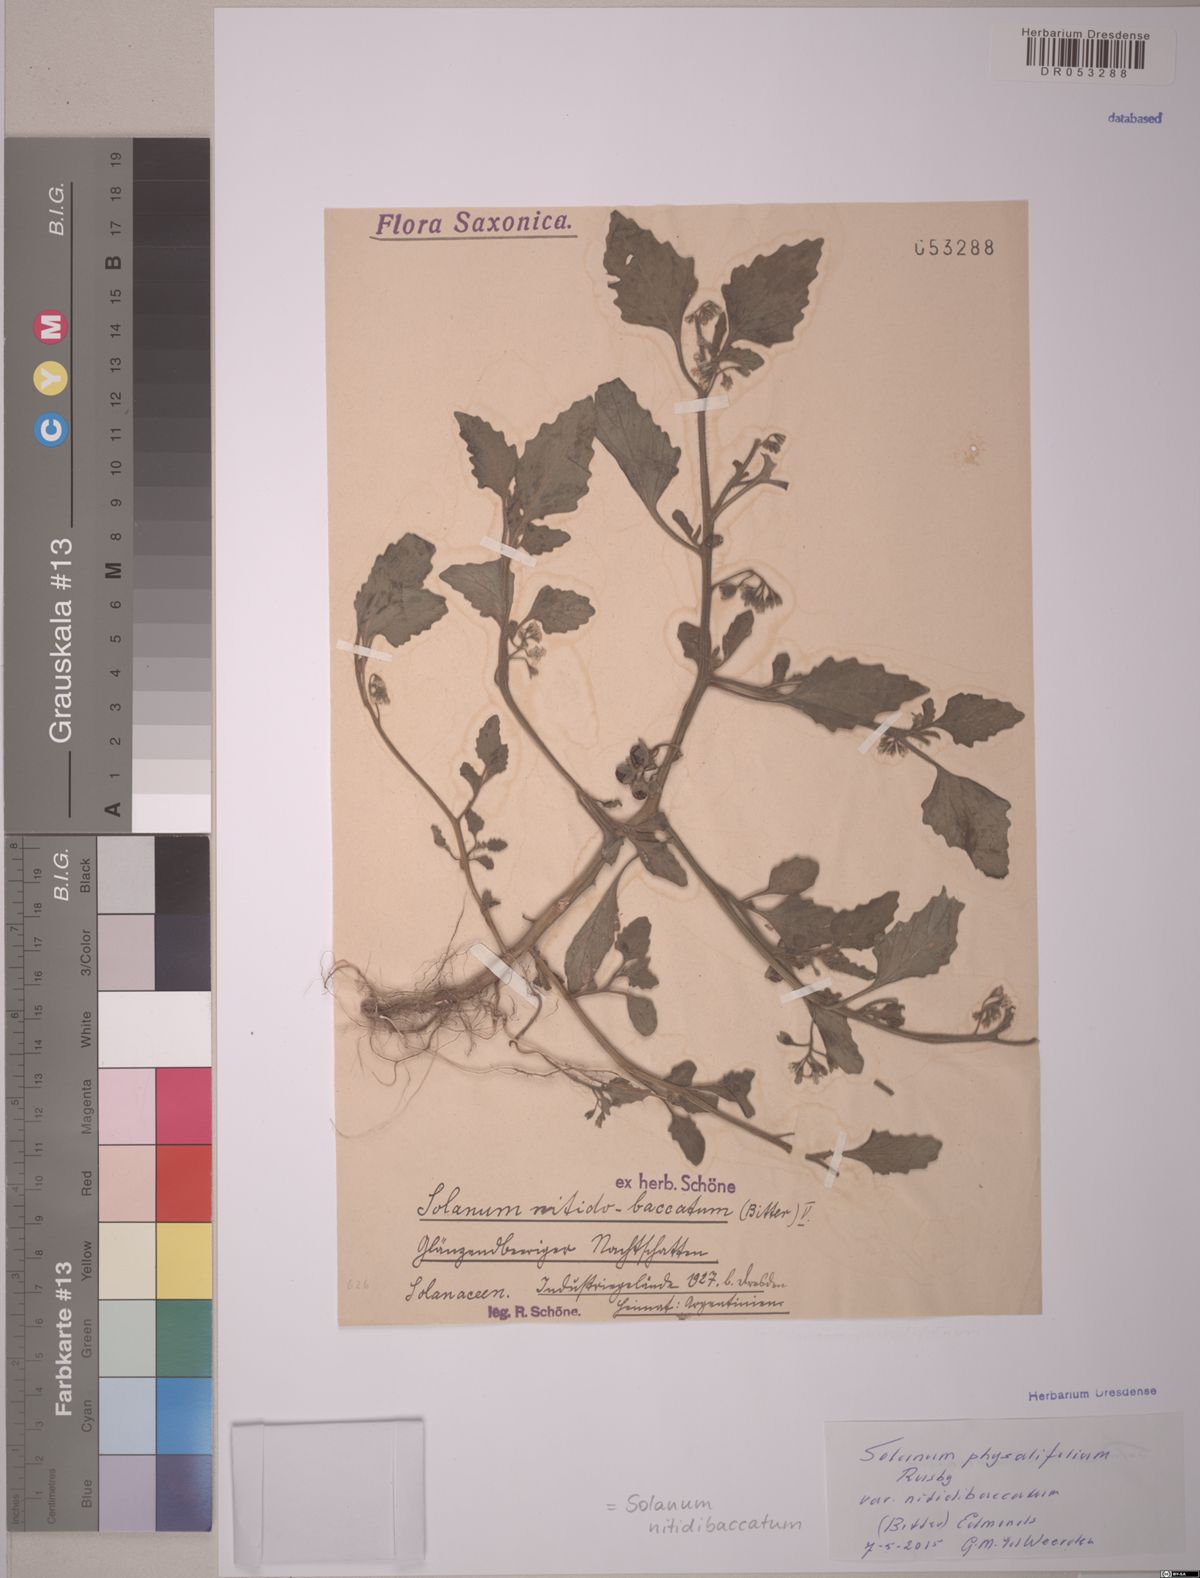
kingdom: Plantae
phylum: Tracheophyta
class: Magnoliopsida
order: Solanales
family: Solanaceae
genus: Solanum
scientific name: Solanum nitidibaccatum
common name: Hairy nightshade
